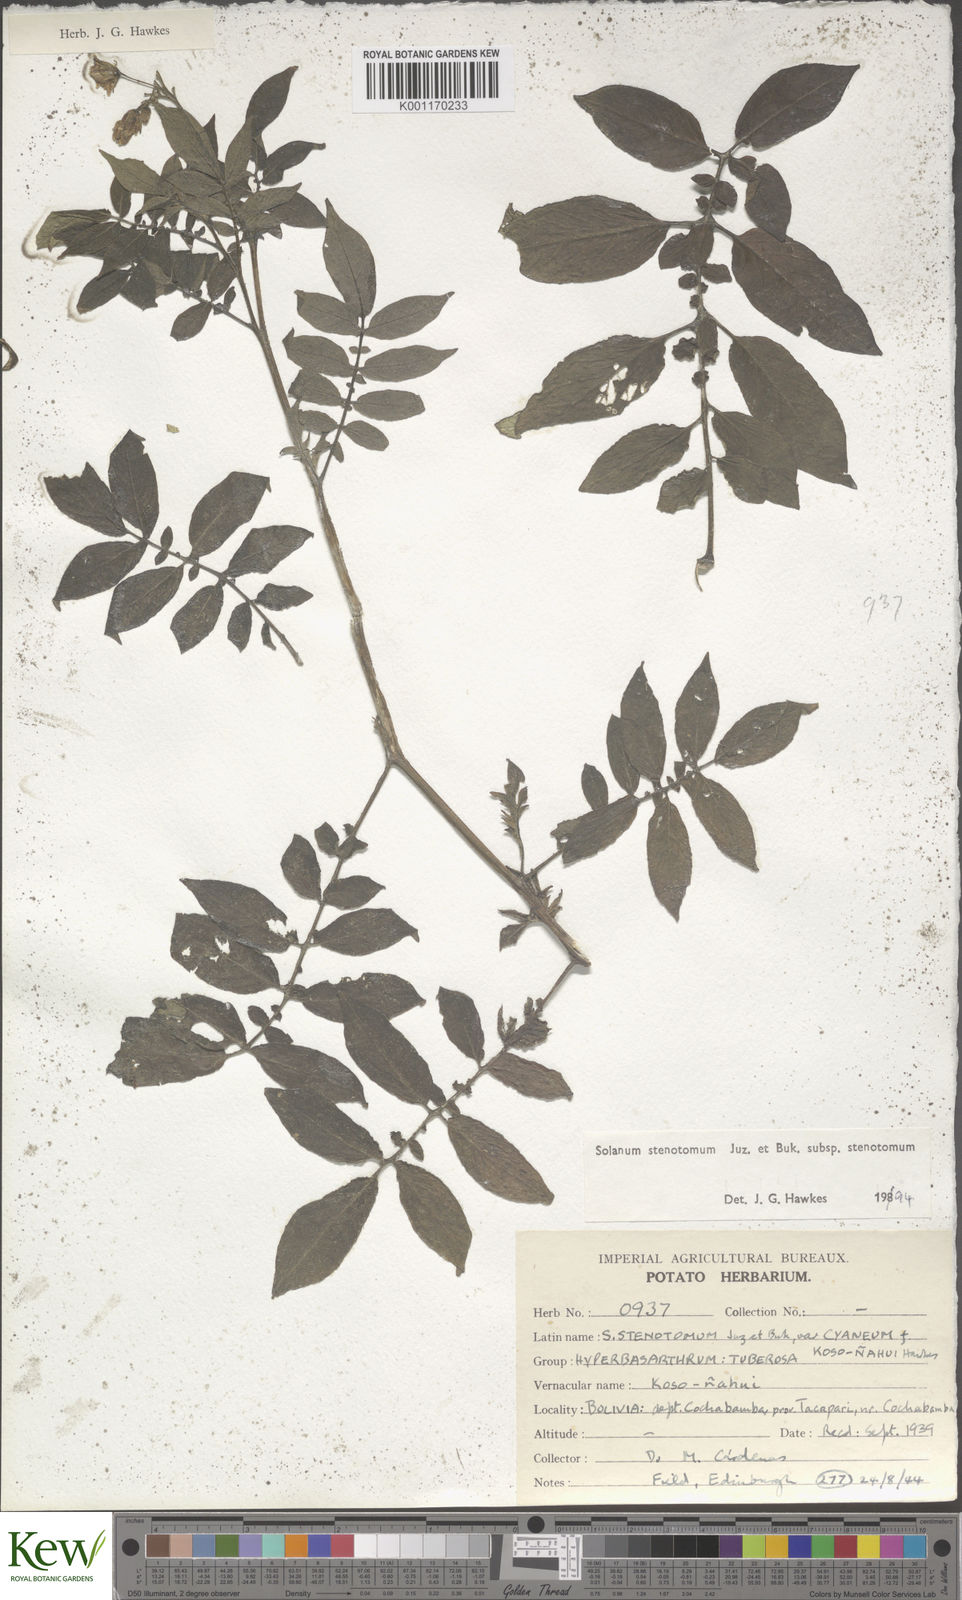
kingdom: Plantae
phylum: Tracheophyta
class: Magnoliopsida
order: Solanales
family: Solanaceae
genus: Solanum
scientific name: Solanum tuberosum
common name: Potato
